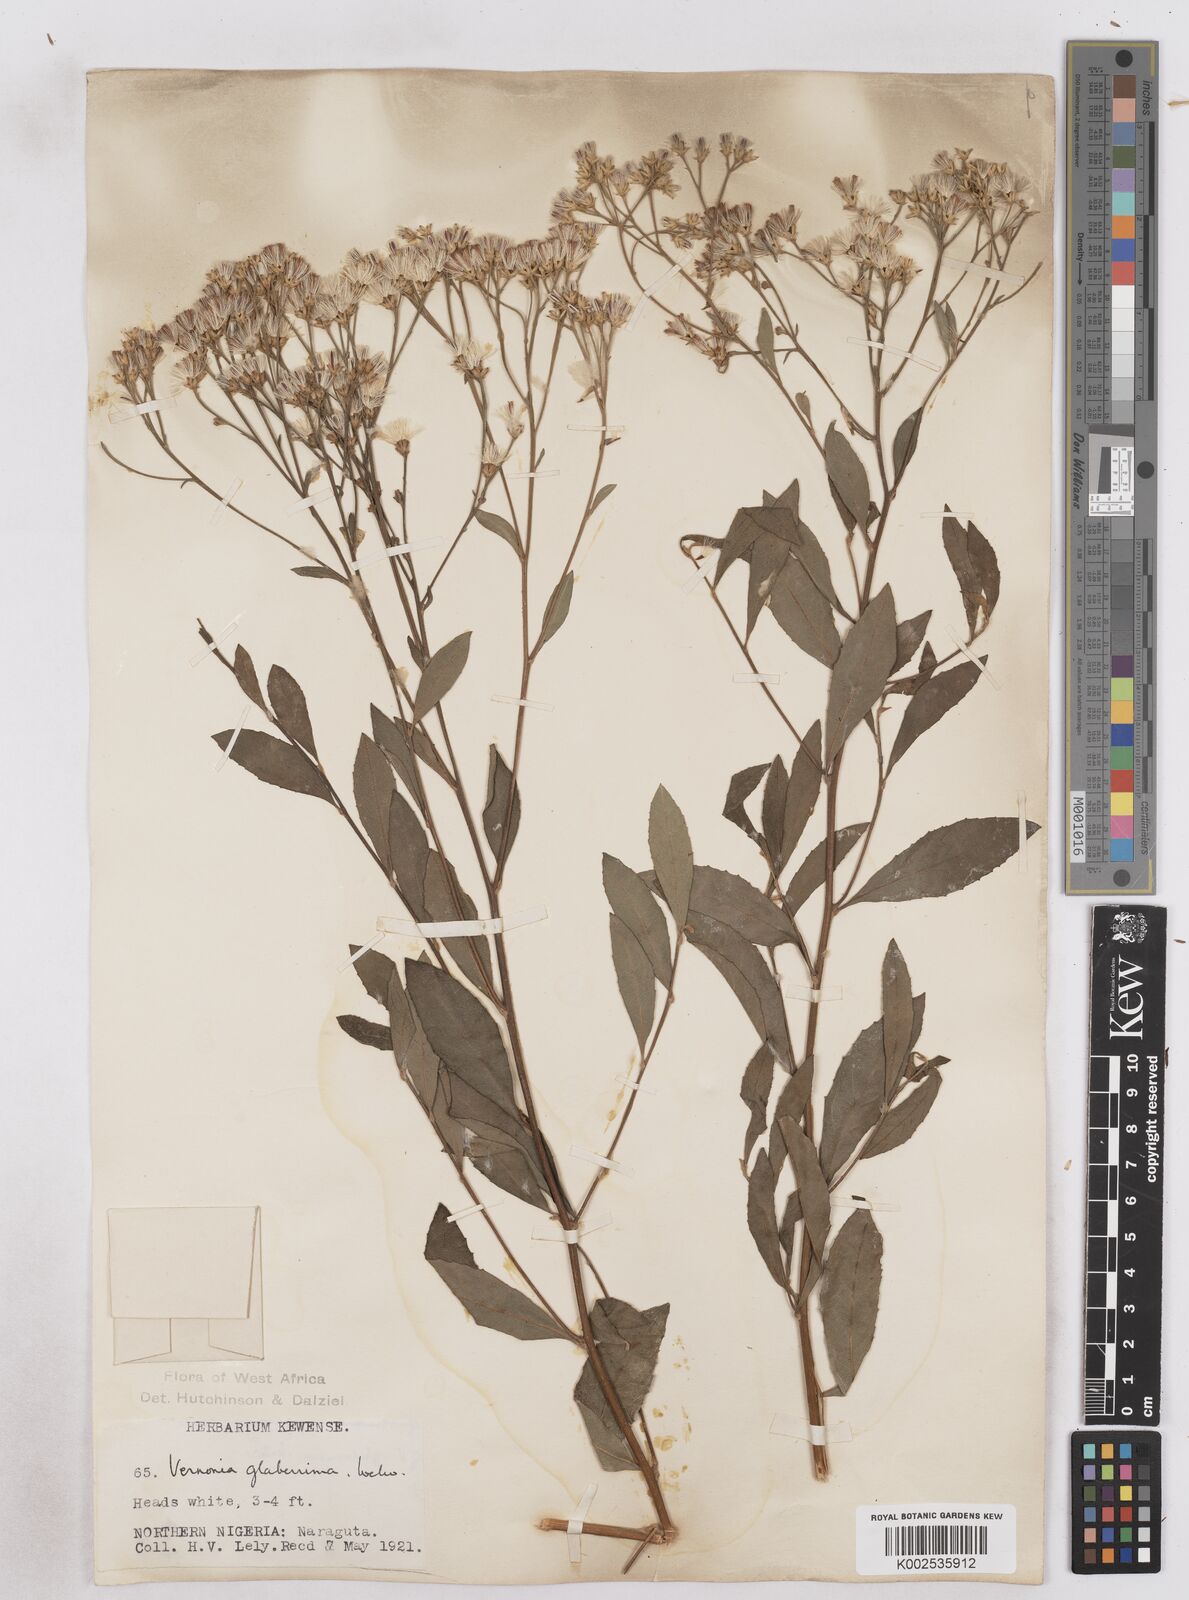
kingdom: Plantae
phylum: Tracheophyta
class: Magnoliopsida
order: Asterales
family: Asteraceae
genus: Gymnanthemum
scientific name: Gymnanthemum glaberrimum
